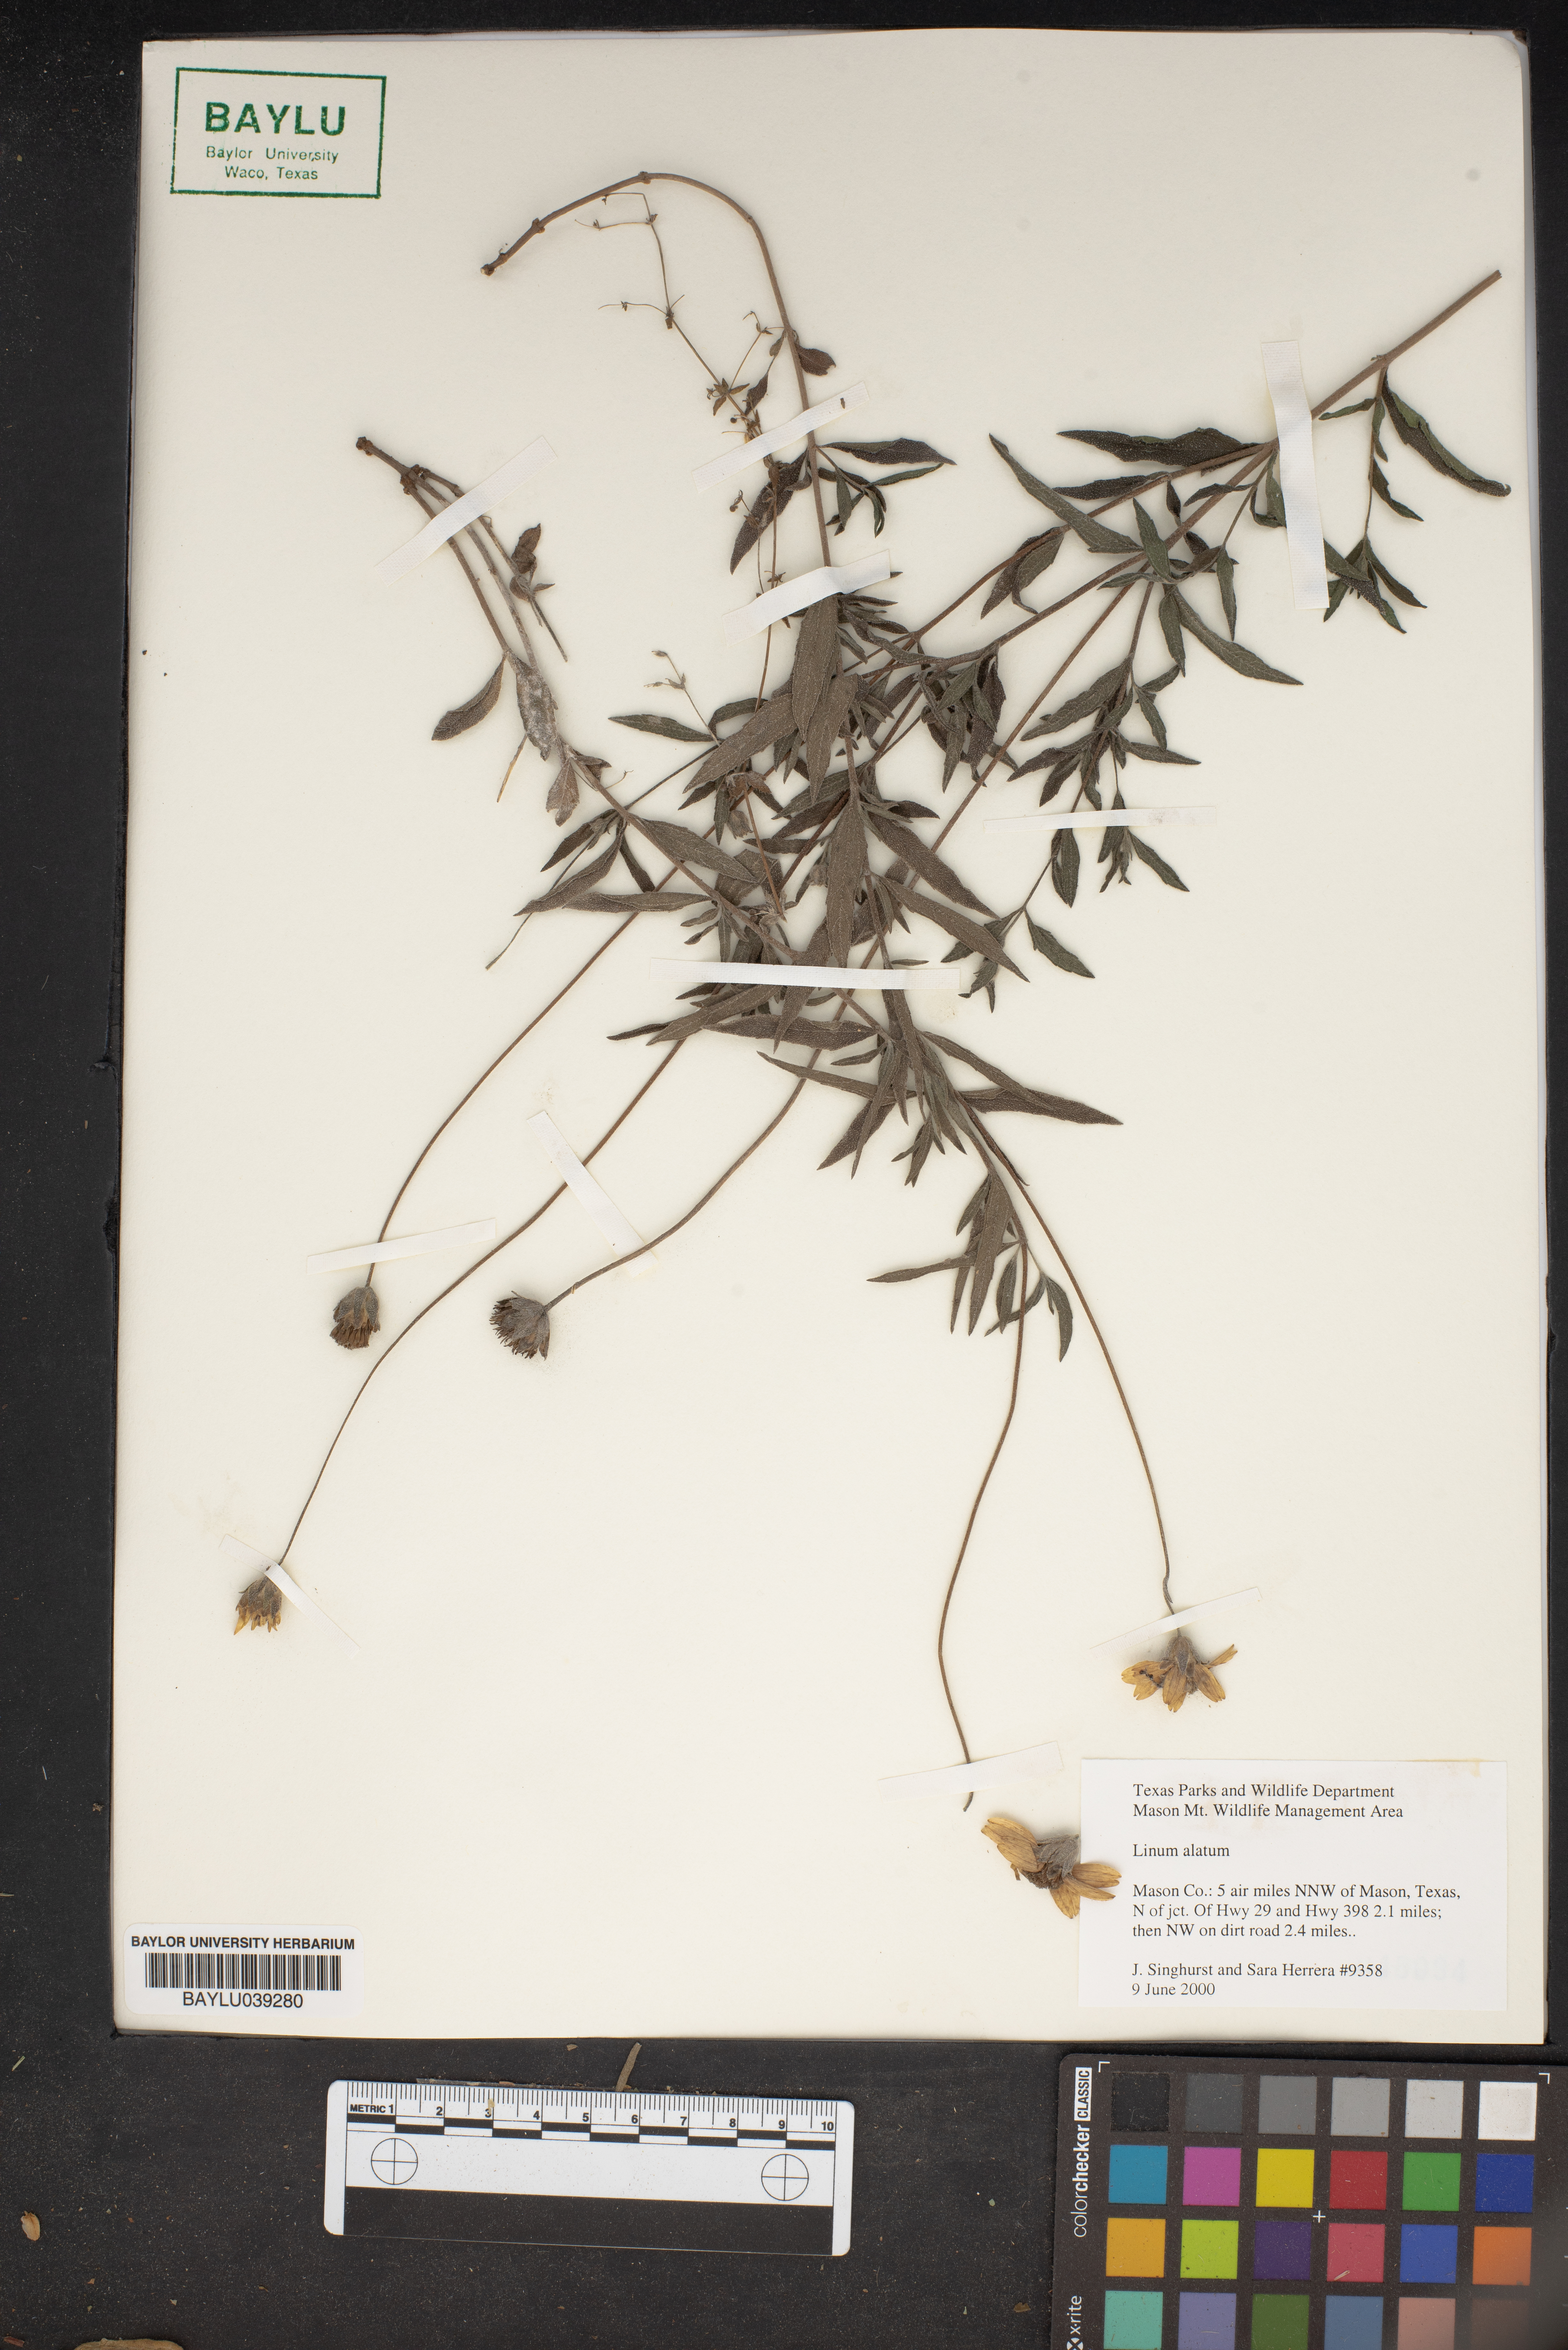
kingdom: Plantae
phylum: Tracheophyta
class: Magnoliopsida
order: Malpighiales
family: Linaceae
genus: Linum
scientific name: Linum alatum
